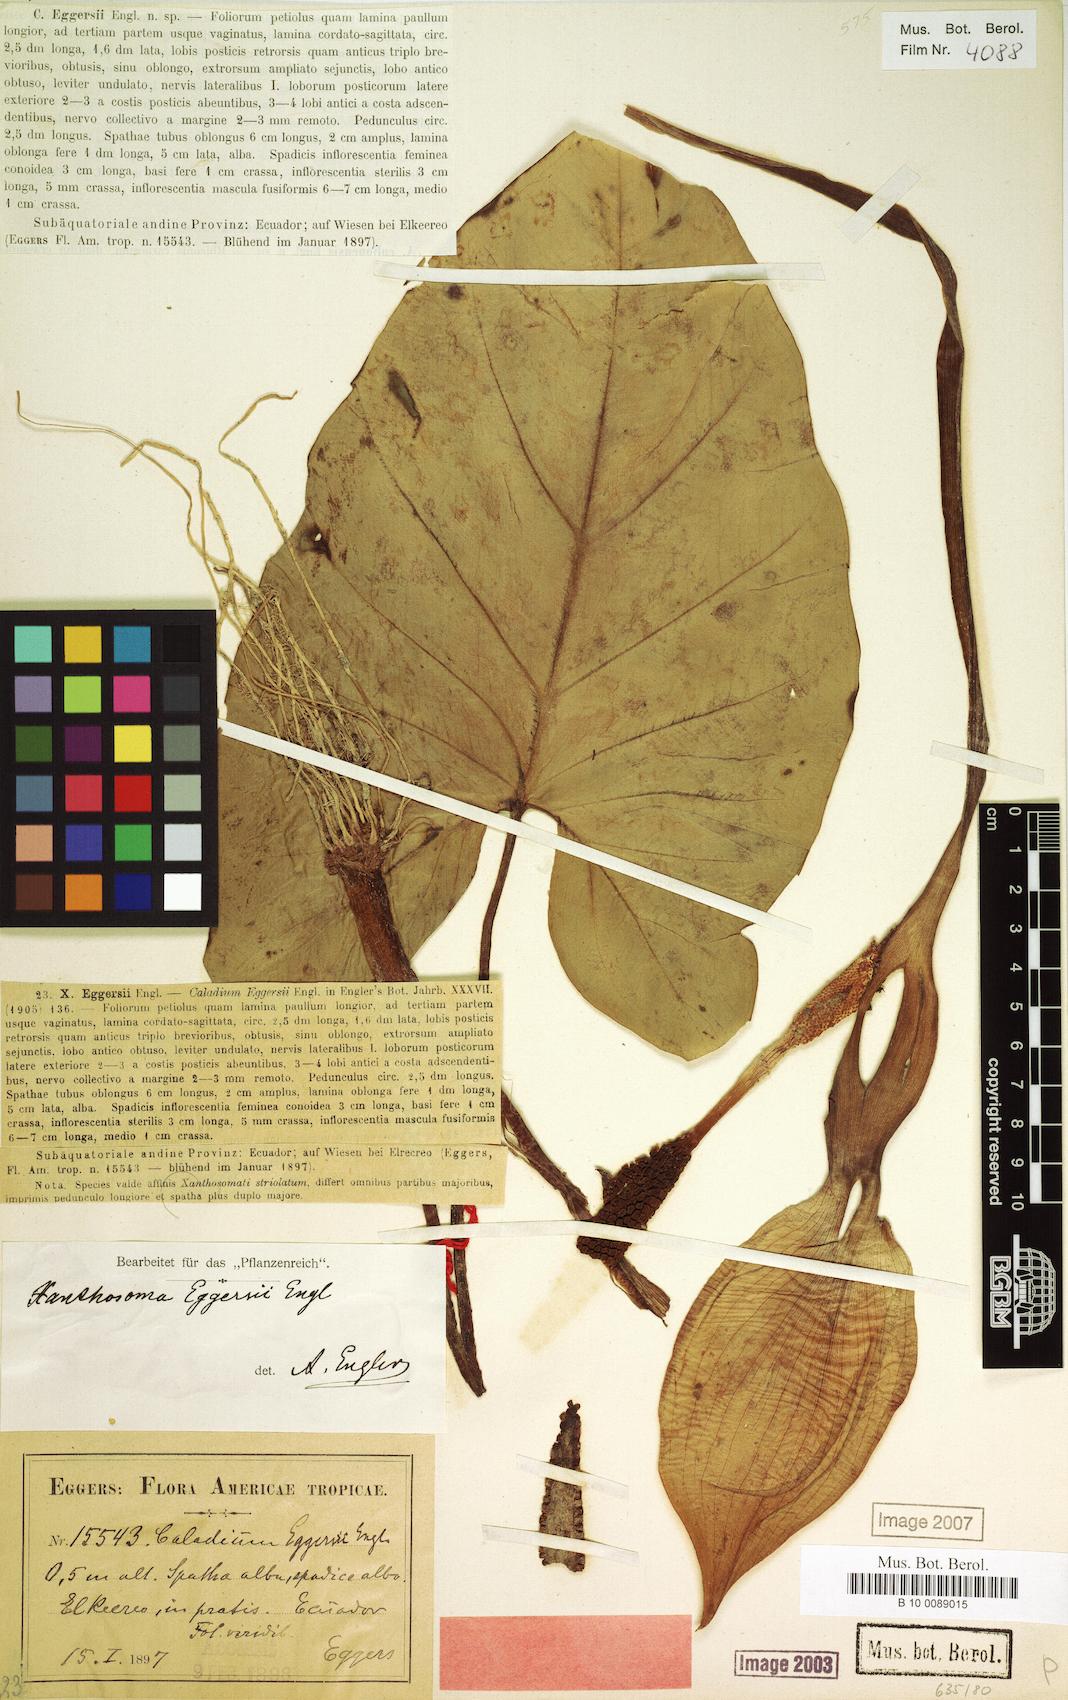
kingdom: Plantae
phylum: Tracheophyta
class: Liliopsida
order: Alismatales
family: Araceae
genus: Xanthosoma
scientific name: Xanthosoma eggersii
